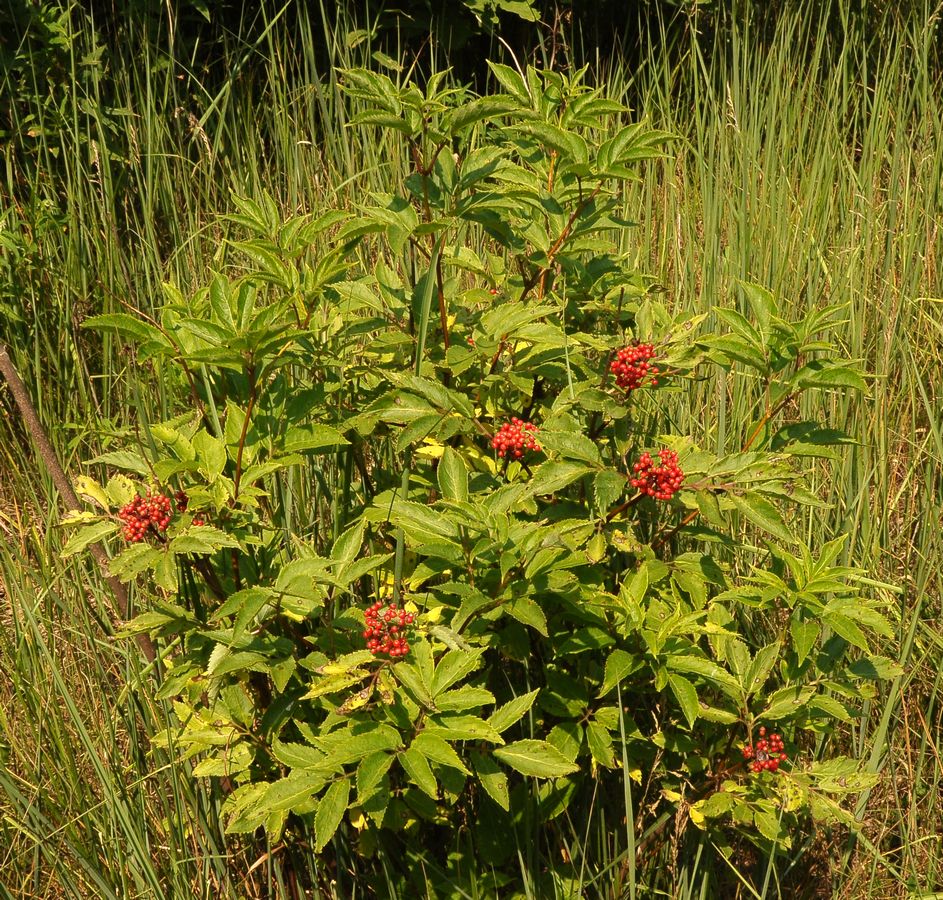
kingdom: Plantae
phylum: Tracheophyta
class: Magnoliopsida
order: Dipsacales
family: Viburnaceae
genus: Sambucus
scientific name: Sambucus racemosa
